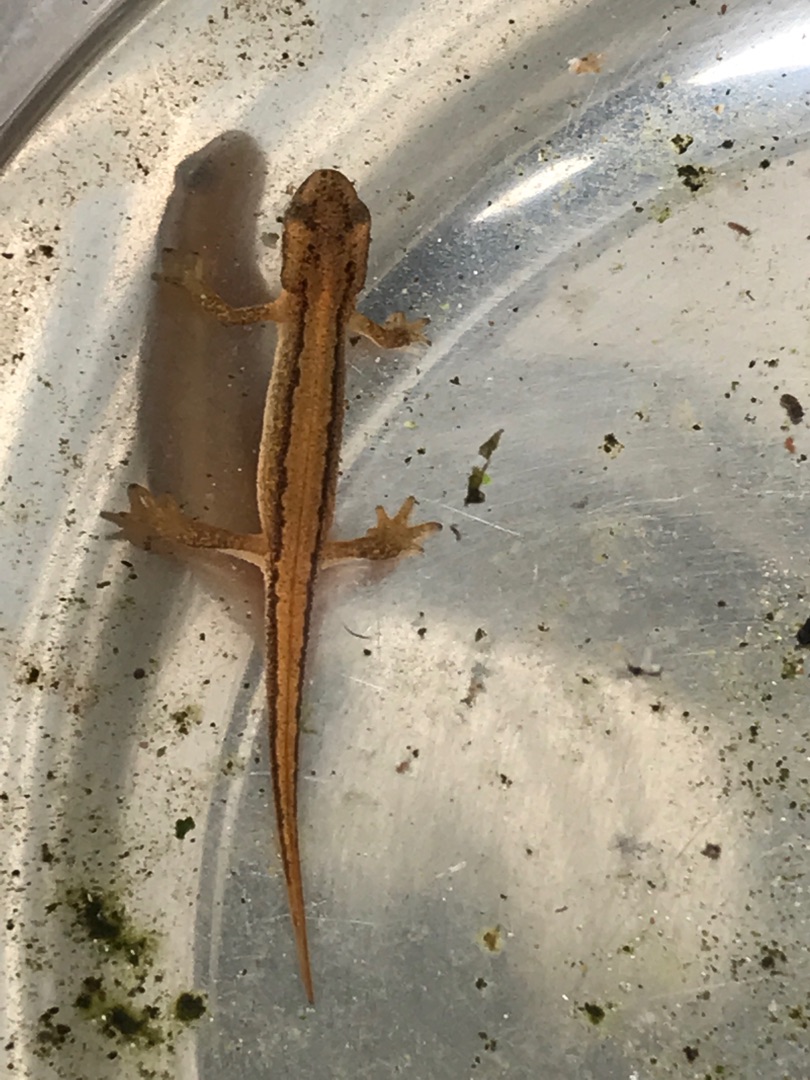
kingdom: Animalia
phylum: Chordata
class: Amphibia
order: Caudata
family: Salamandridae
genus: Lissotriton
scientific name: Lissotriton vulgaris
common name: Lille vandsalamander
